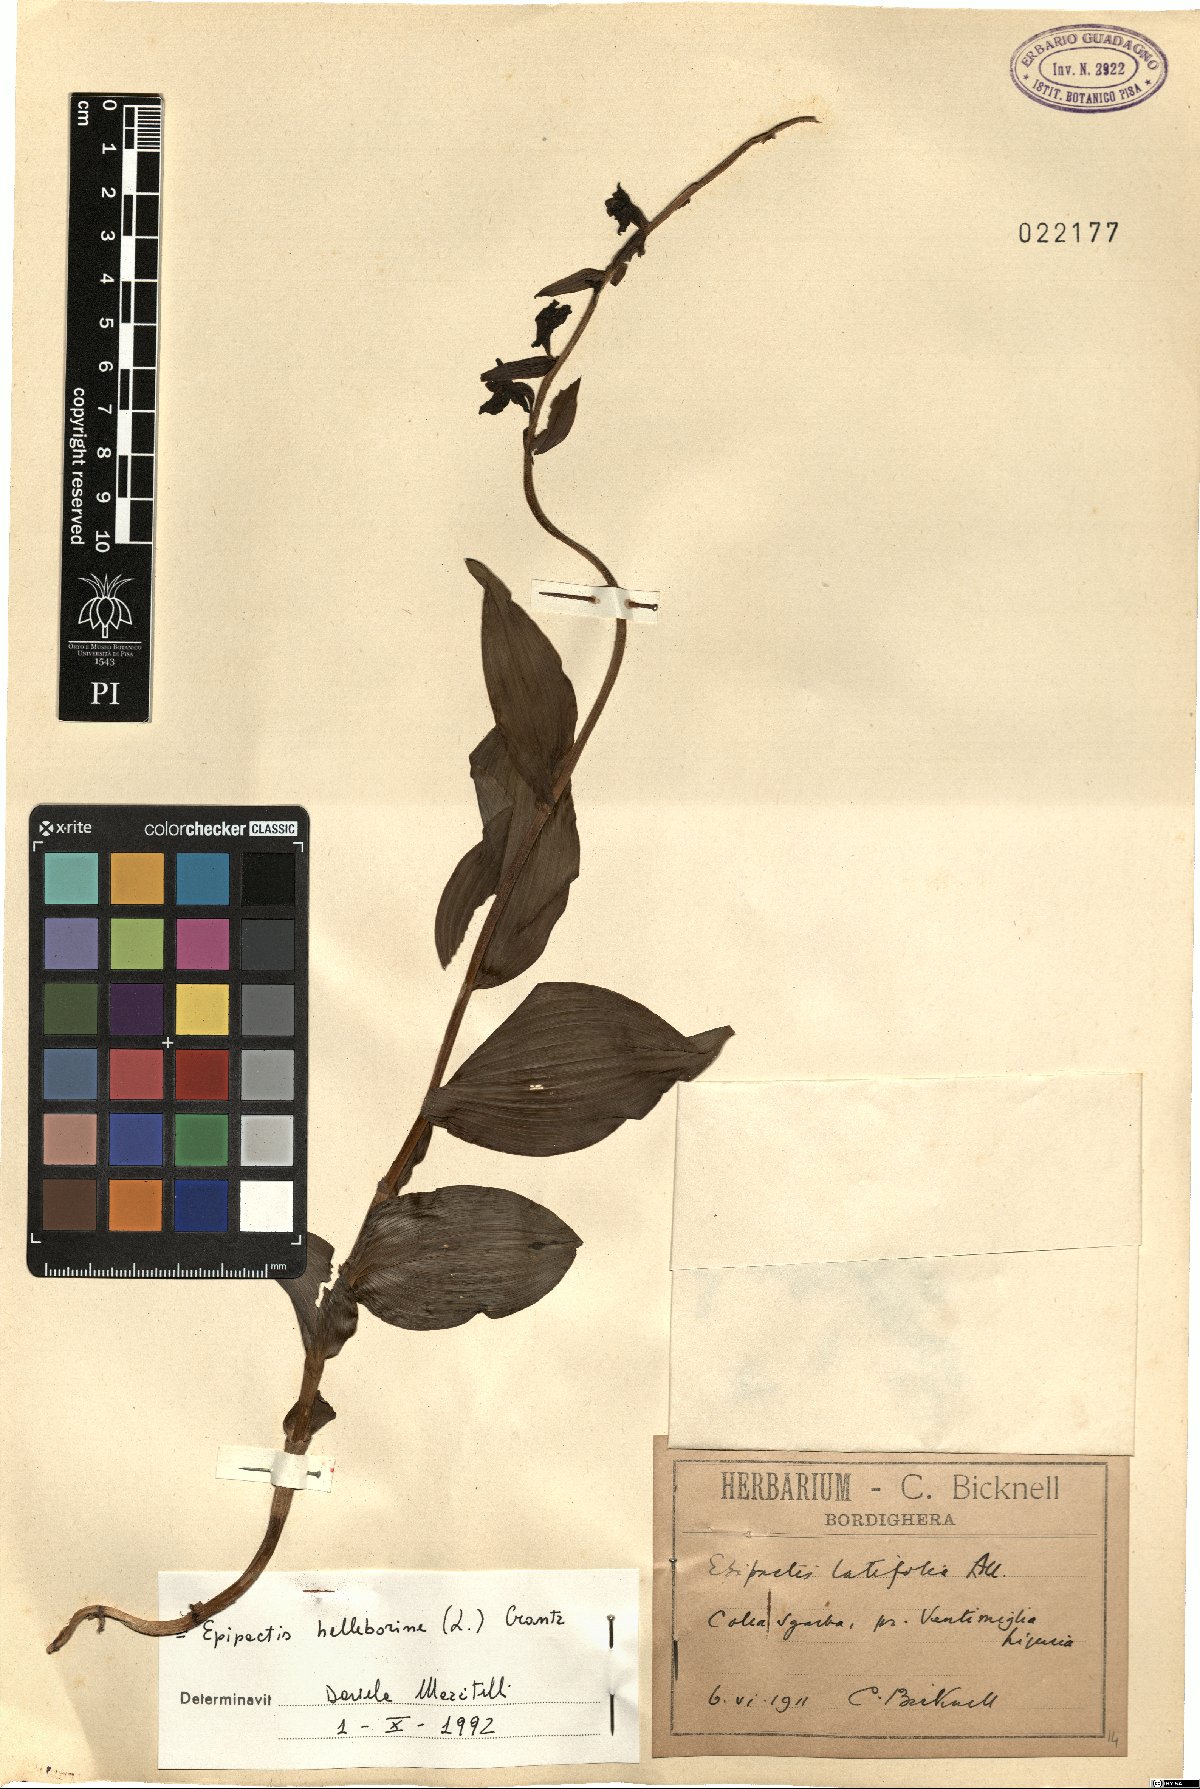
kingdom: Plantae
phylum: Tracheophyta
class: Liliopsida
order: Asparagales
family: Orchidaceae
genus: Epipactis
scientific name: Epipactis helleborine
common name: Broad-leaved helleborine
